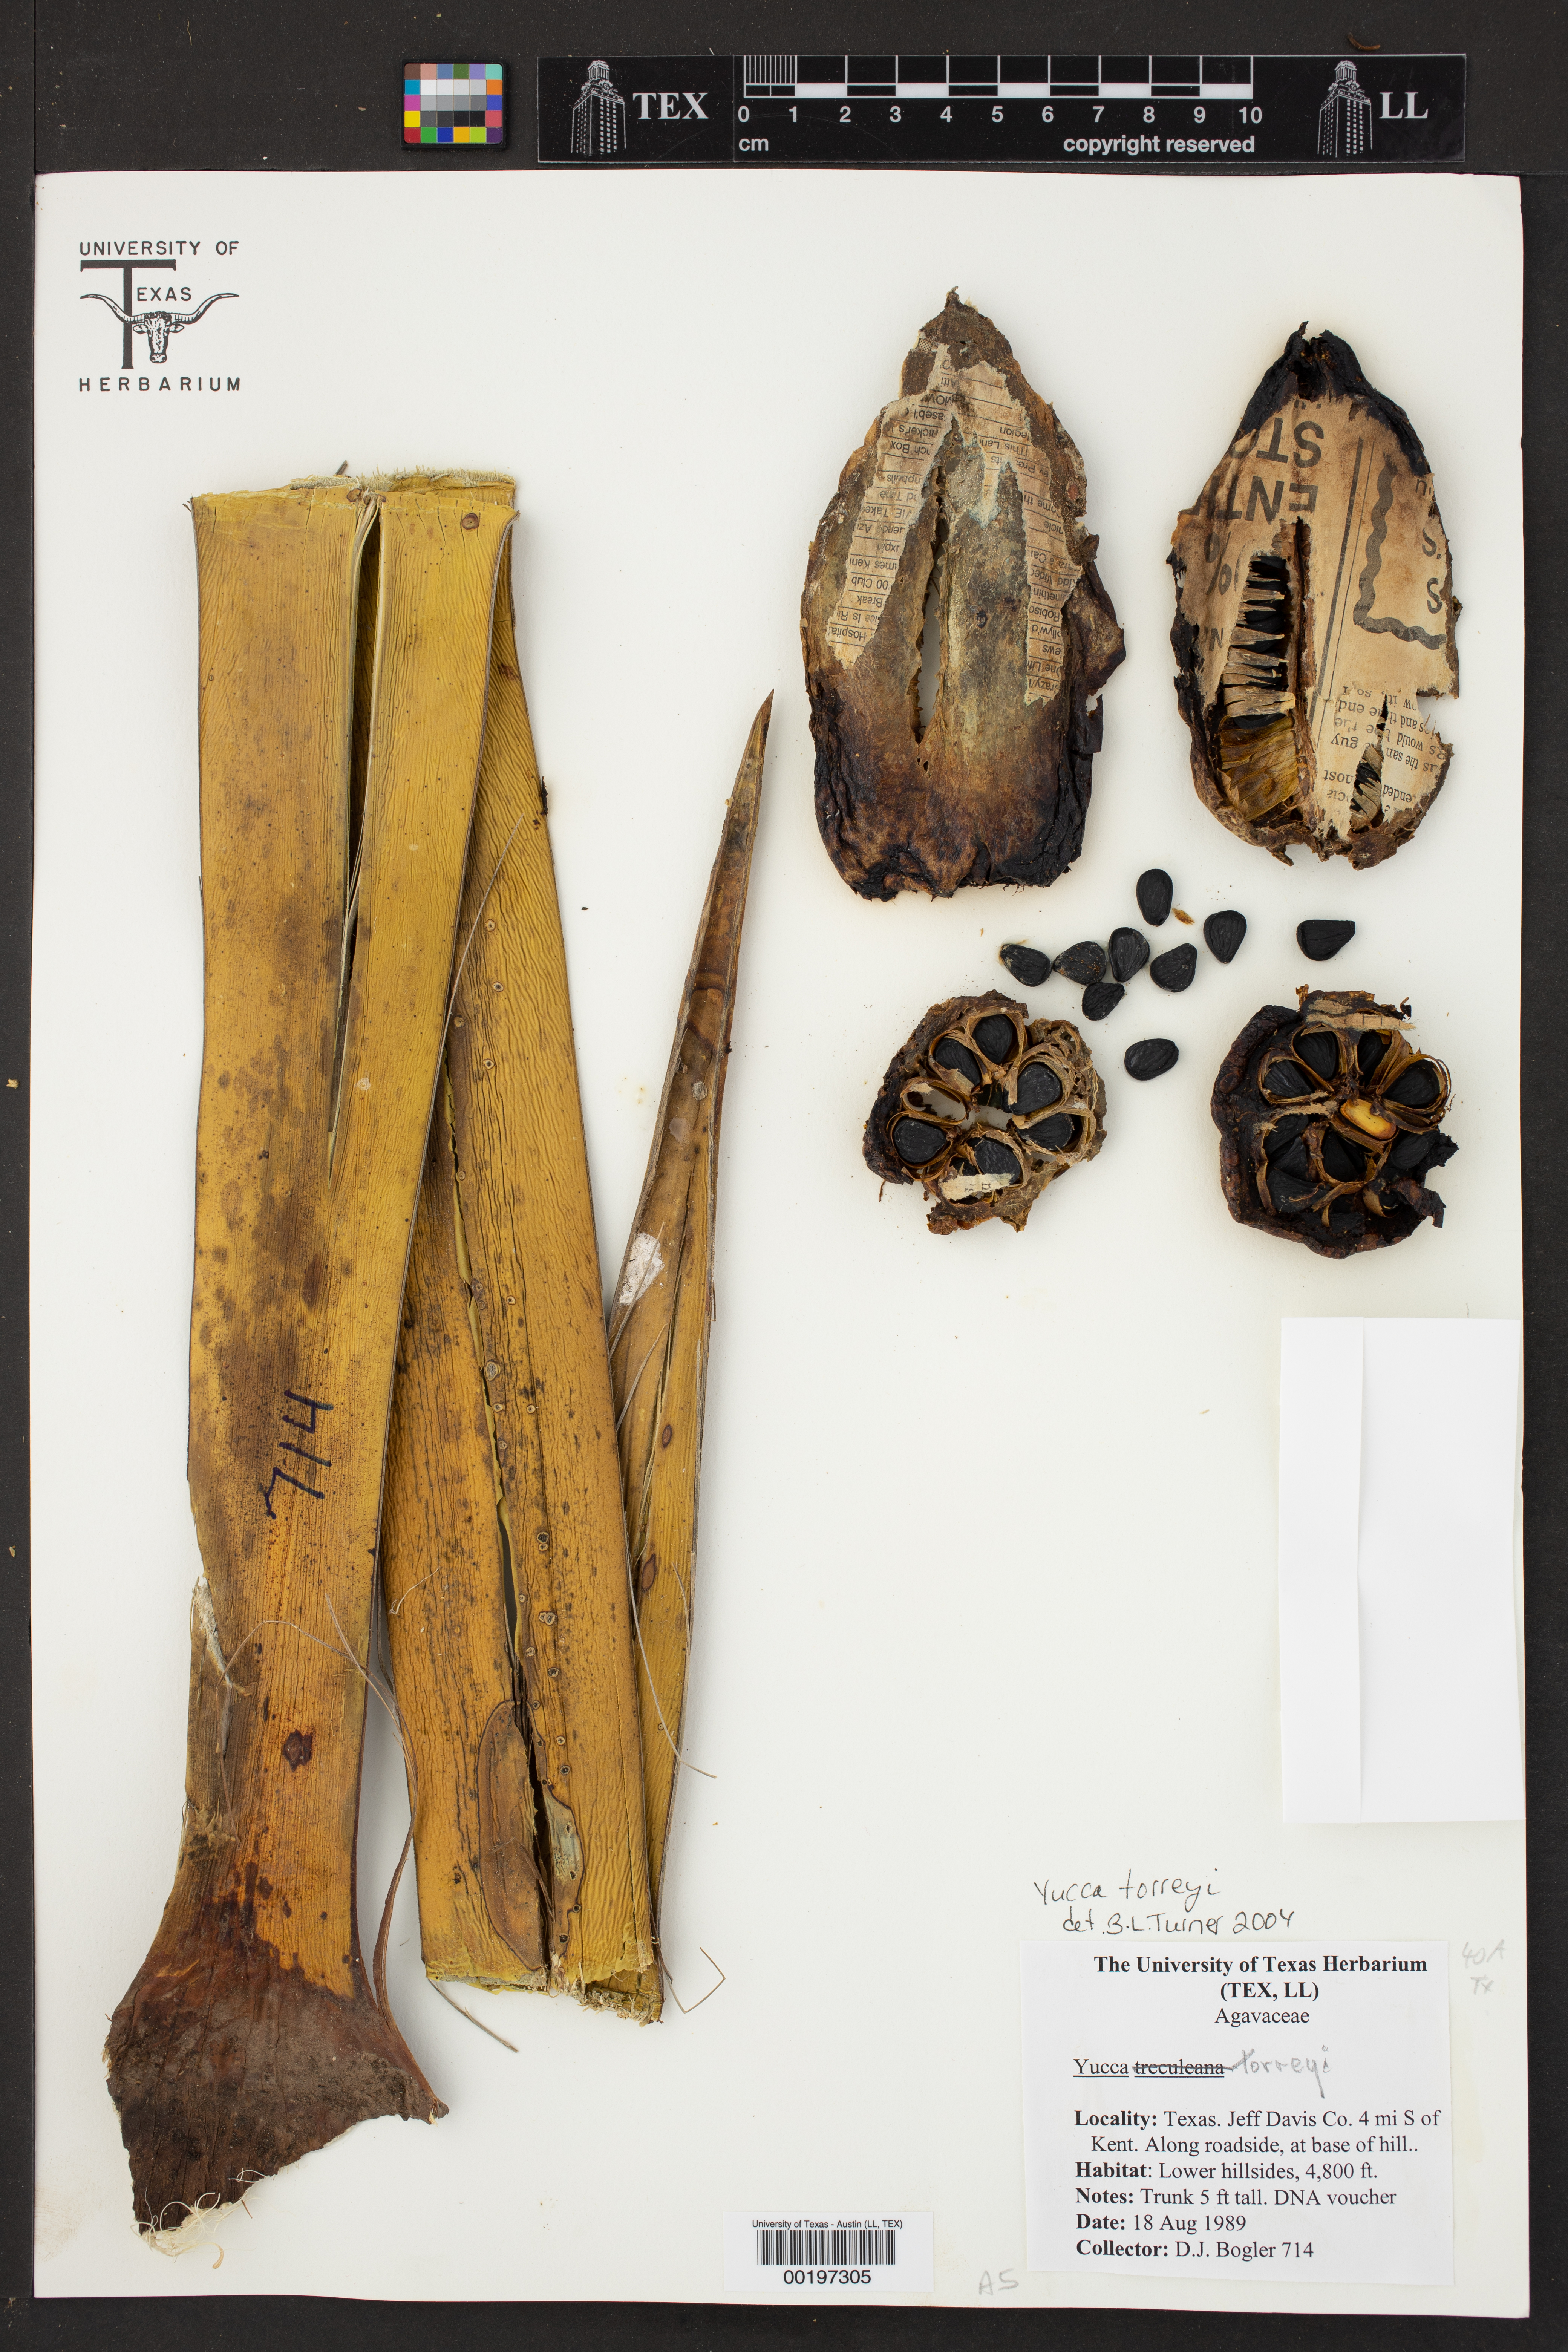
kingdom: Plantae
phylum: Tracheophyta
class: Liliopsida
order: Asparagales
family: Asparagaceae
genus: Yucca
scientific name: Yucca treculiana
